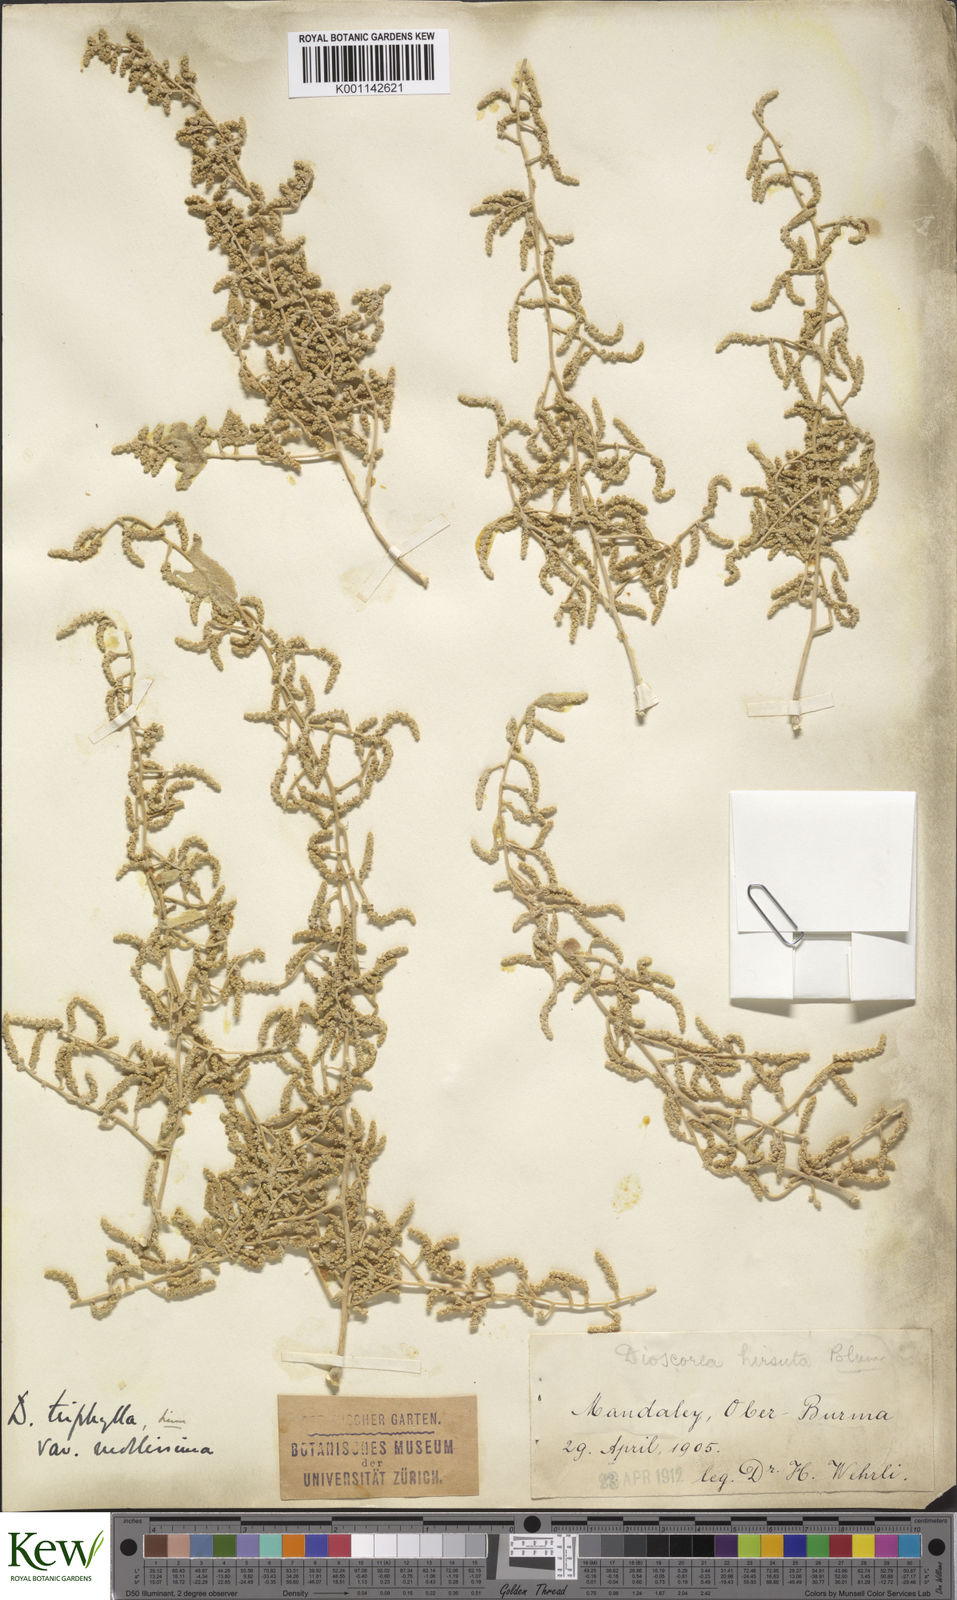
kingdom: Plantae
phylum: Tracheophyta
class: Liliopsida
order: Dioscoreales
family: Dioscoreaceae
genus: Dioscorea
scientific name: Dioscorea pentaphylla
